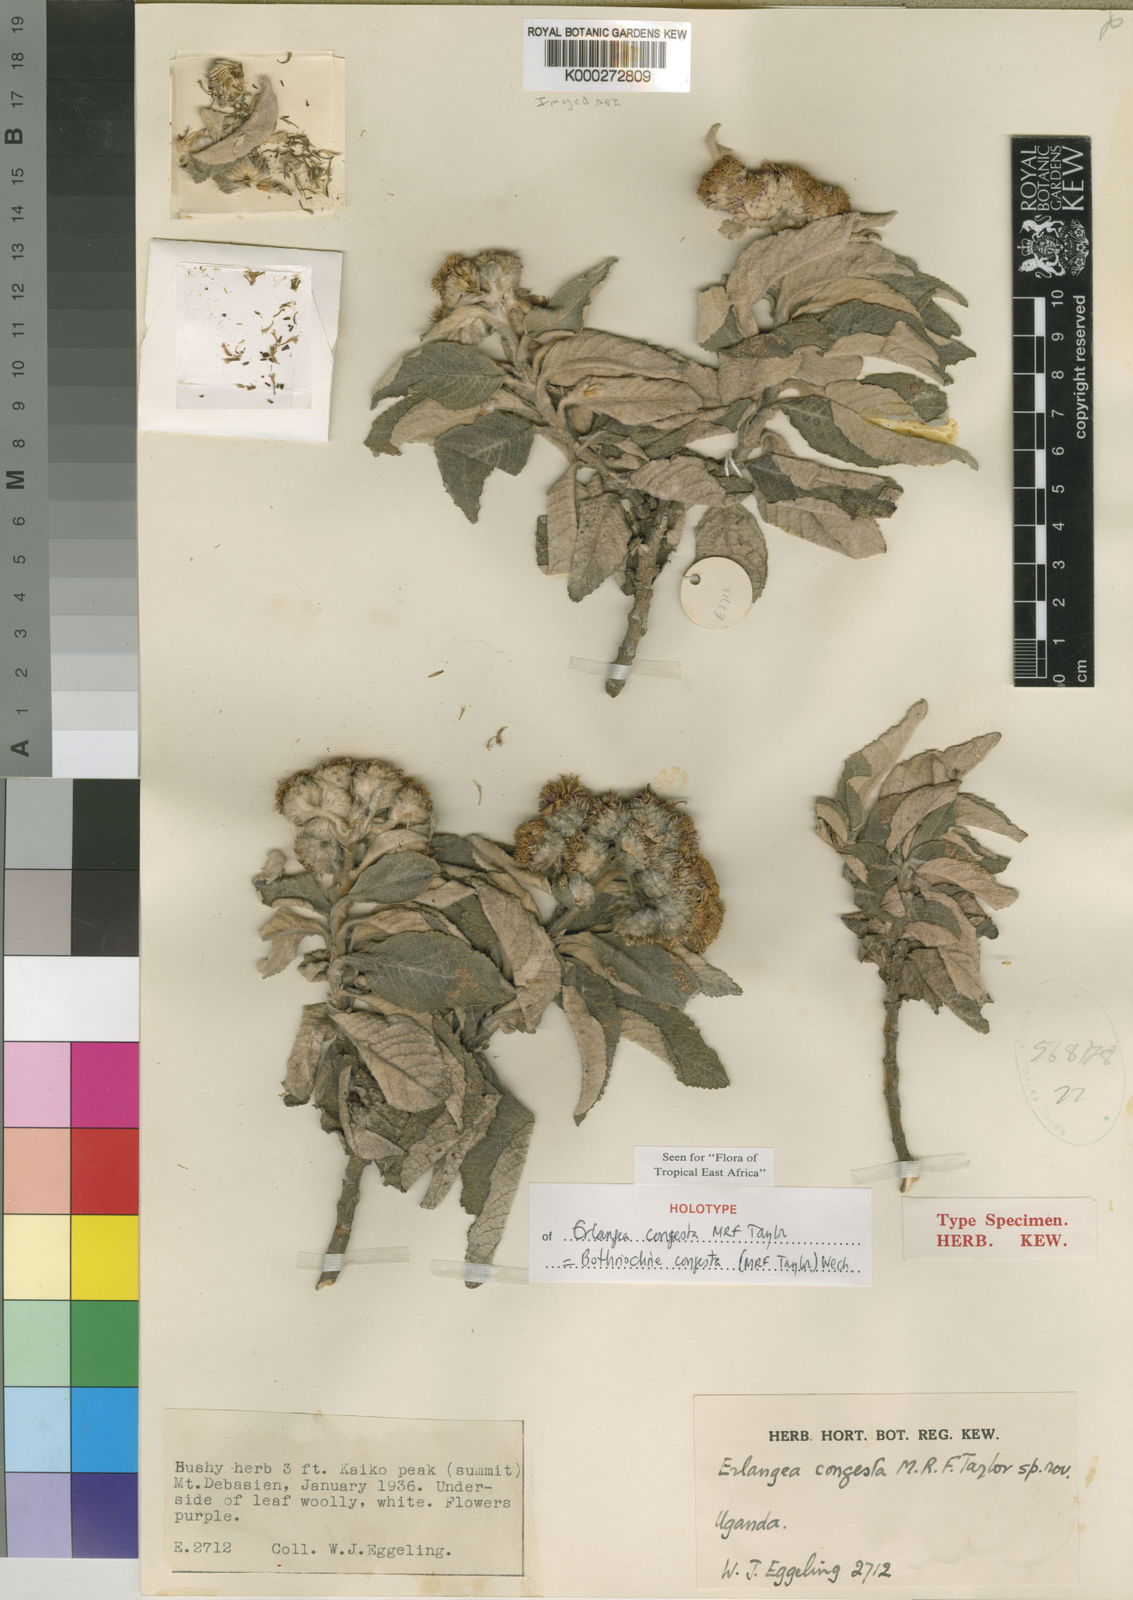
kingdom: Plantae
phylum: Tracheophyta
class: Magnoliopsida
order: Asterales
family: Asteraceae
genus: Bothriocline
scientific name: Bothriocline congesta
